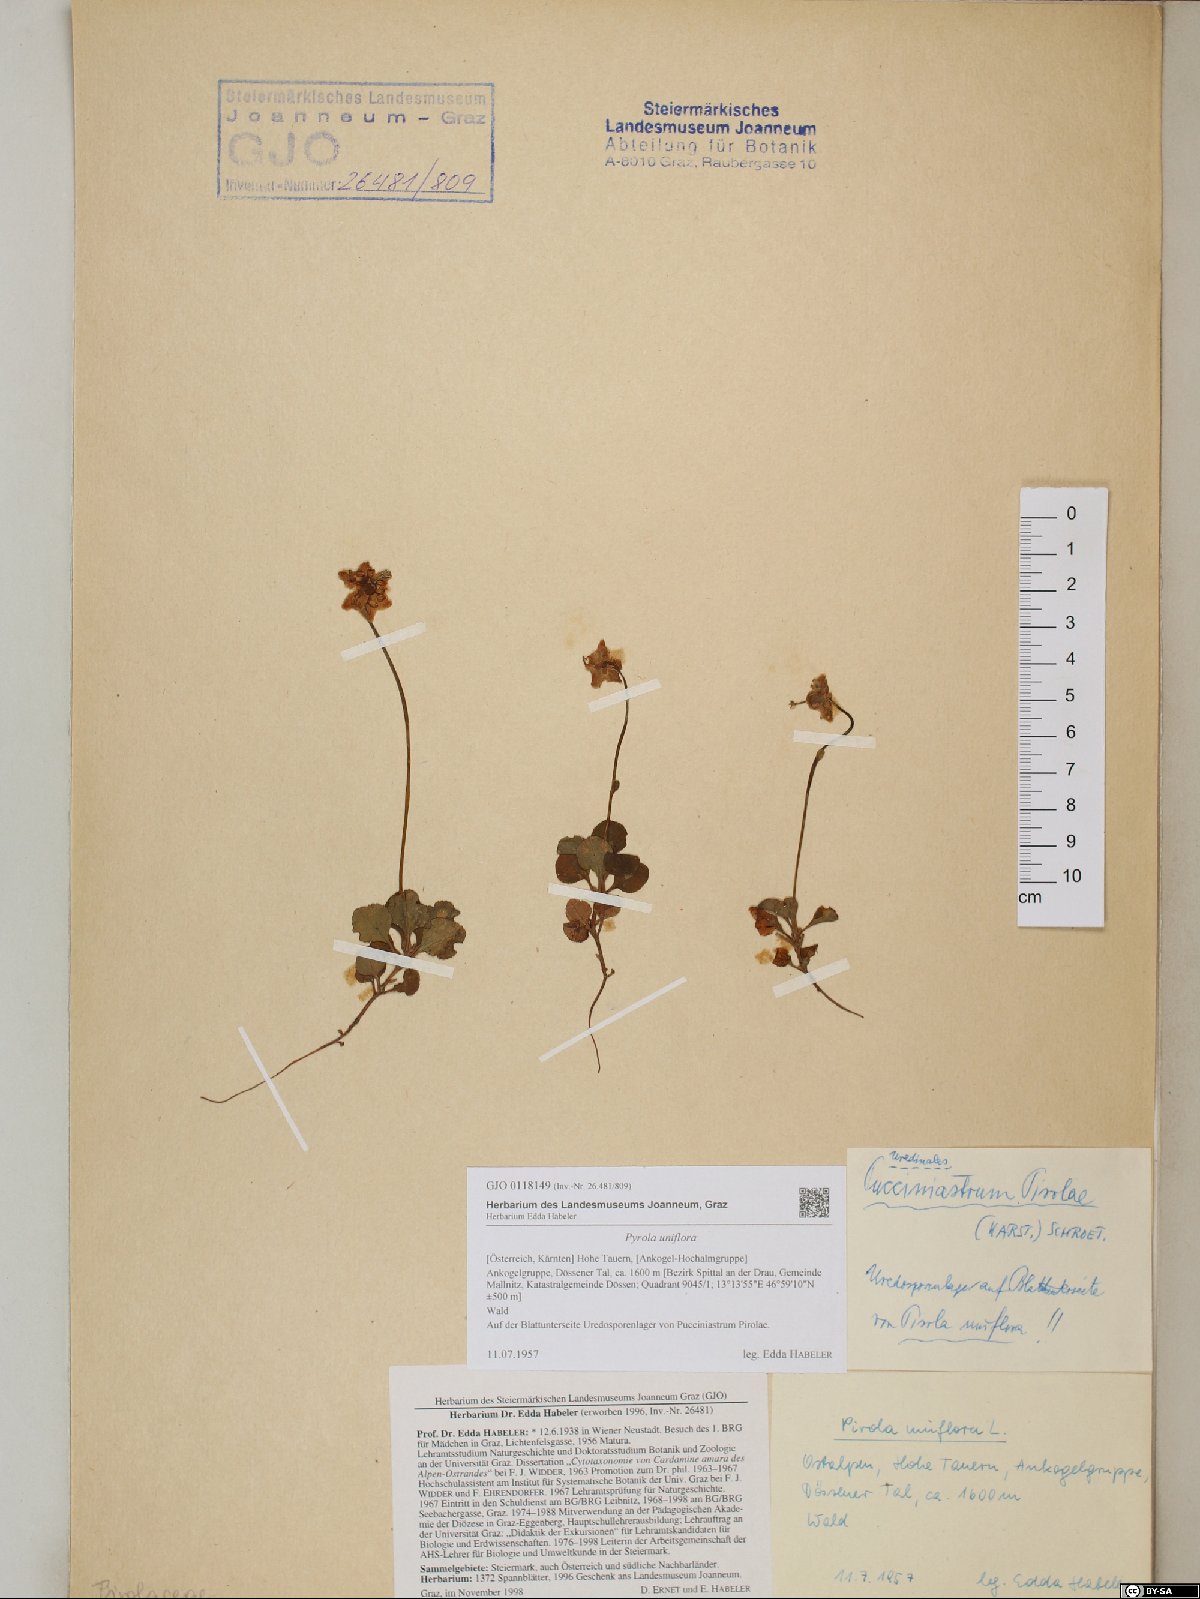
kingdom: Plantae
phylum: Tracheophyta
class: Magnoliopsida
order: Ericales
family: Ericaceae
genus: Moneses
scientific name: Moneses uniflora
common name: One-flowered wintergreen
